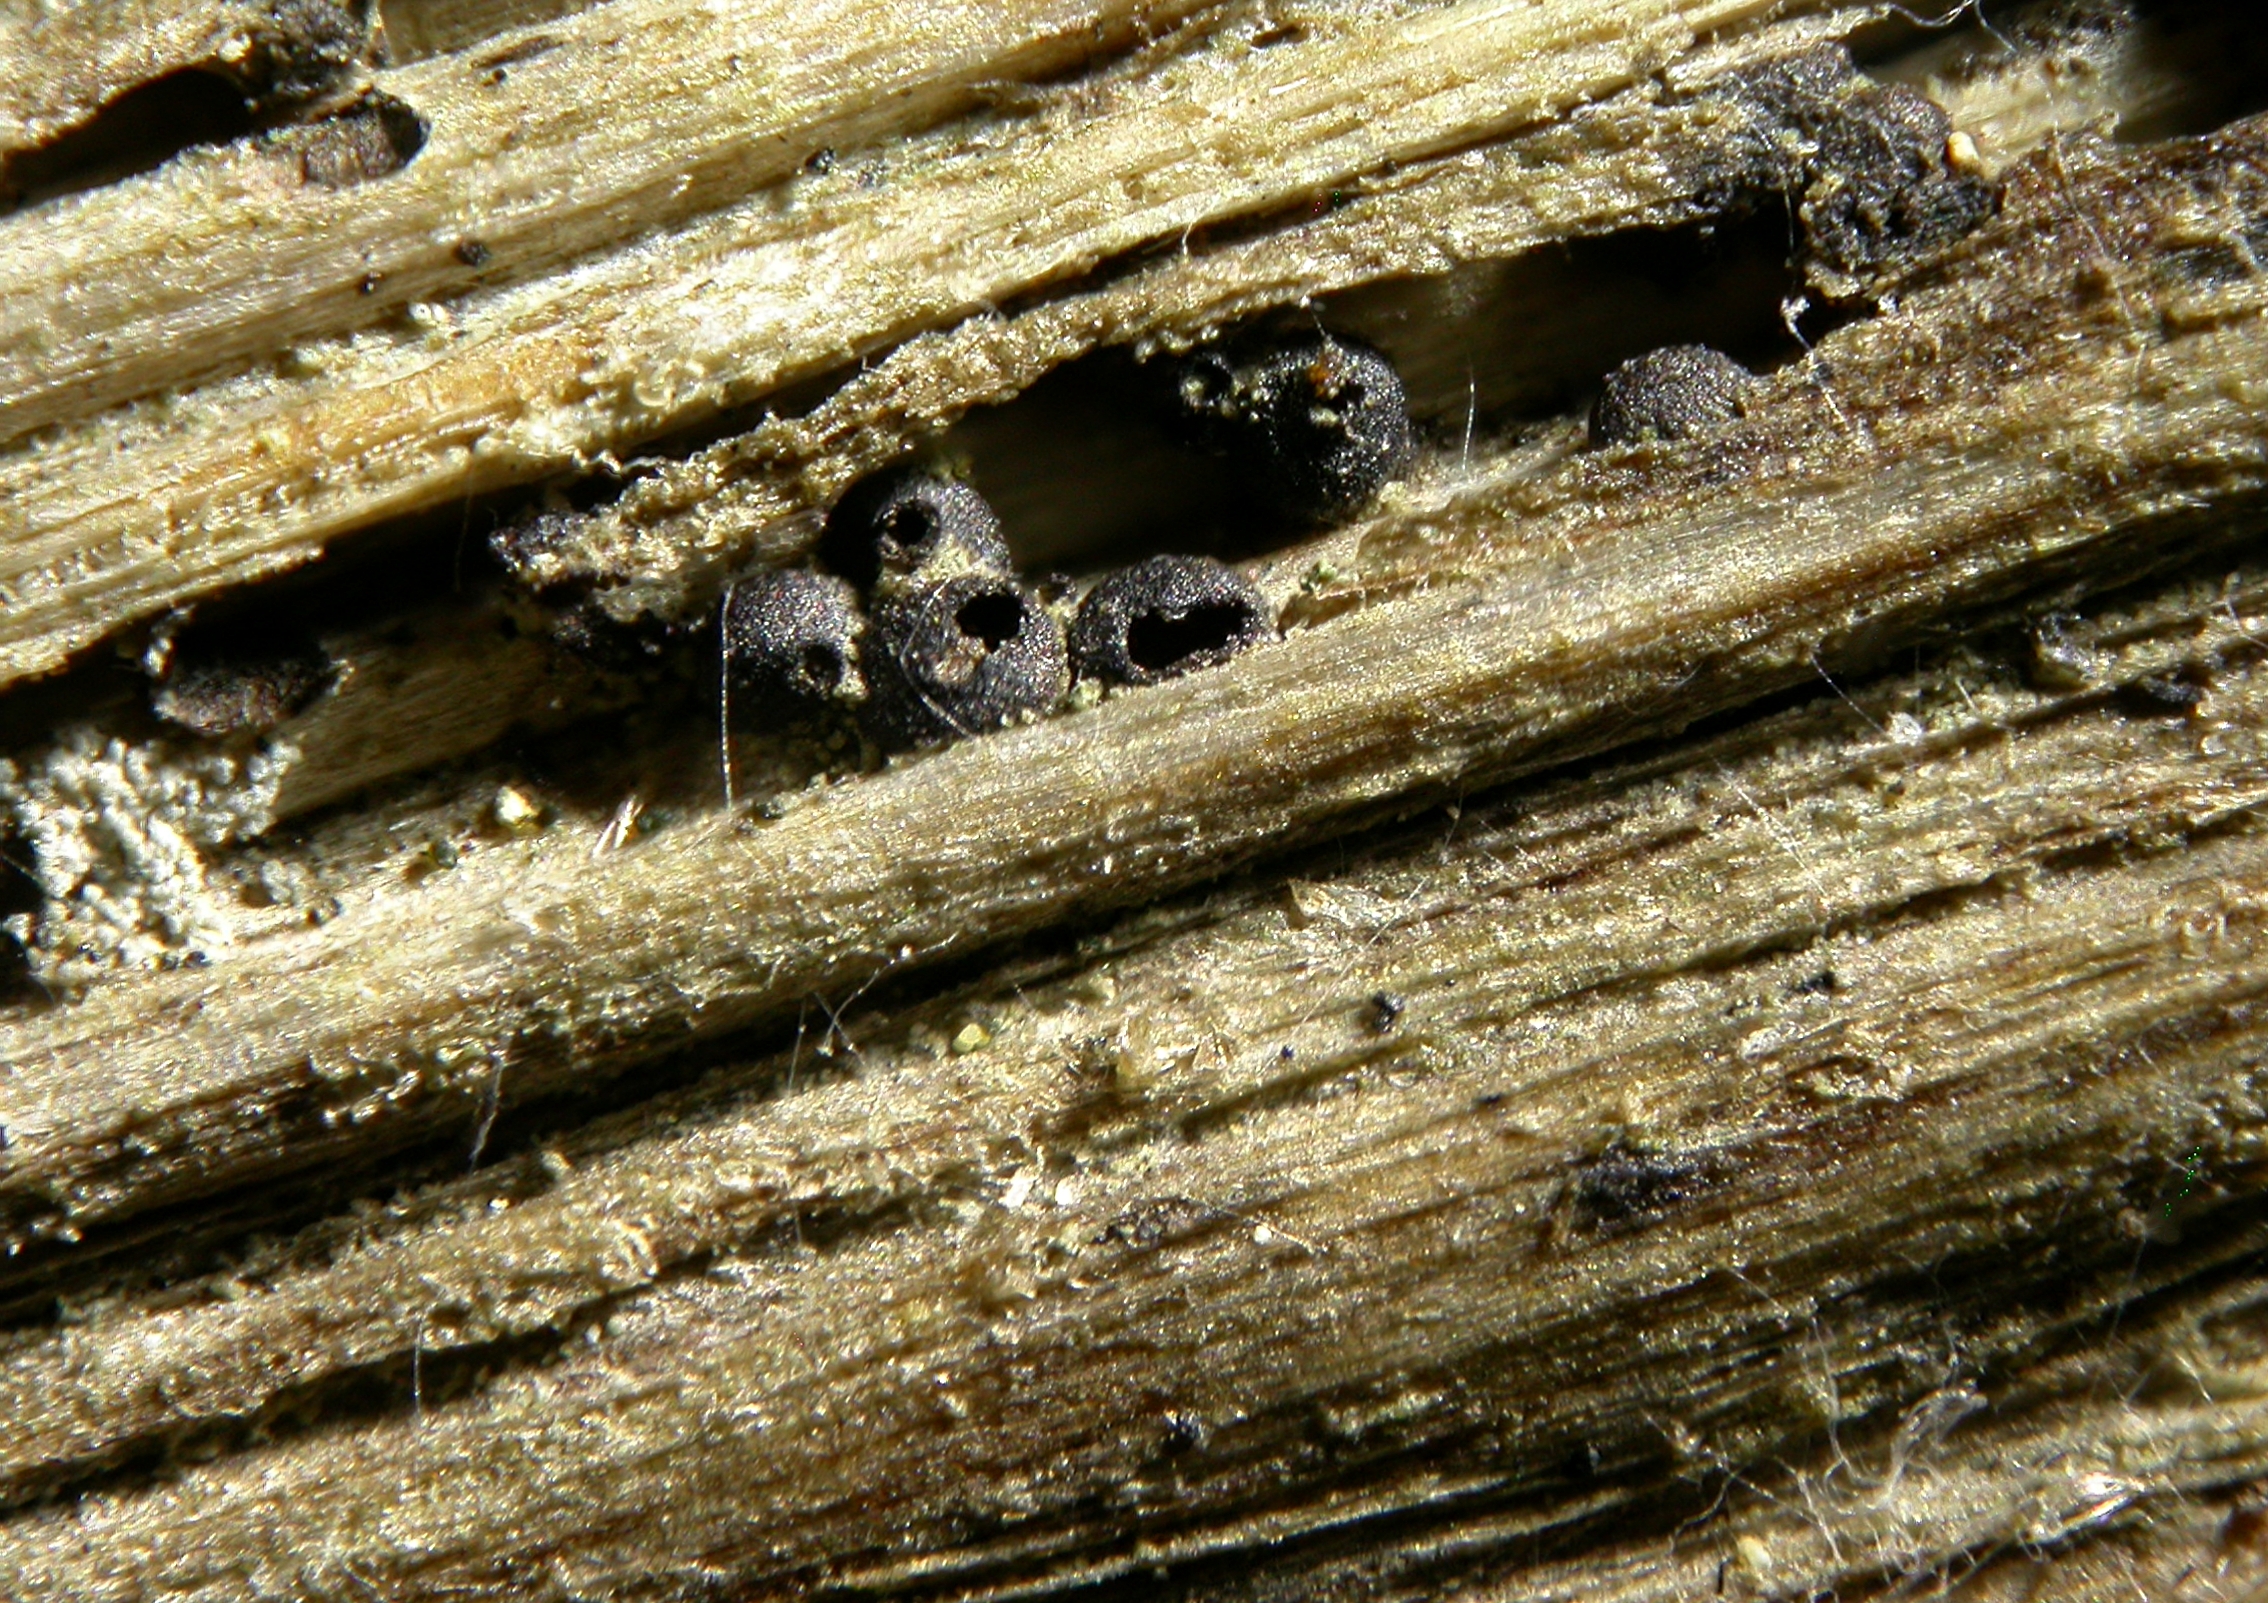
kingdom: Fungi
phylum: Ascomycota
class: Dothideomycetes
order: Dothideales
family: Saccotheciaceae
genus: Metasphaeria
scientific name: Metasphaeria cirsii
